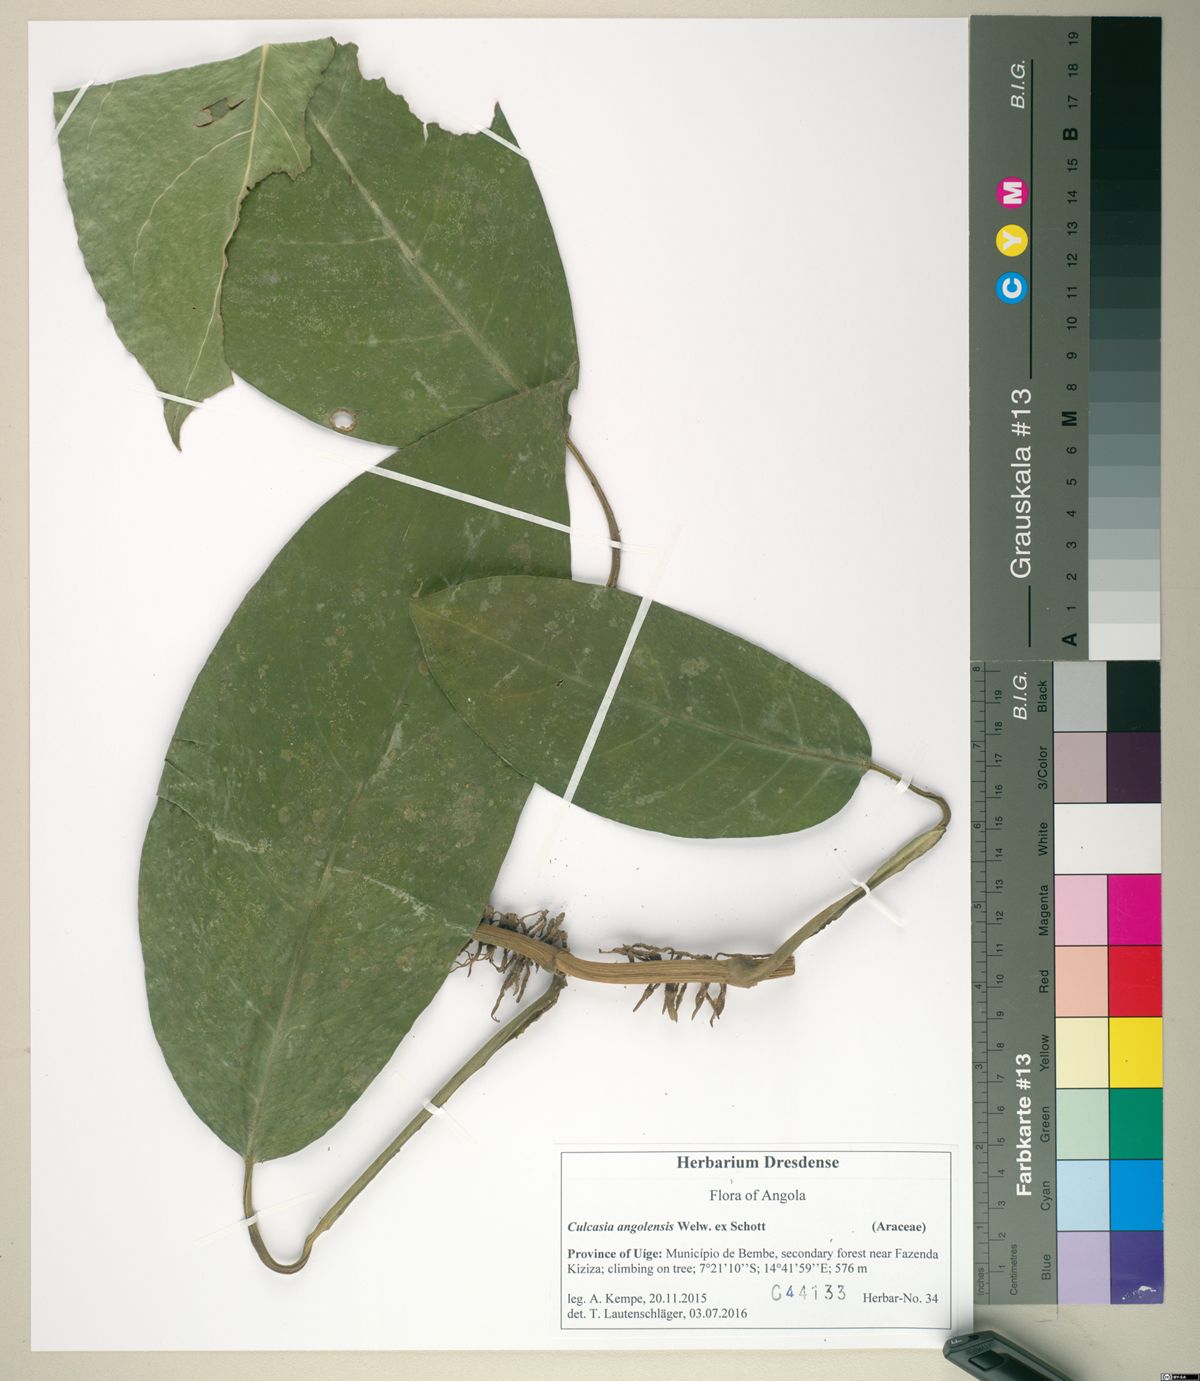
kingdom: Plantae
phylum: Tracheophyta
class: Liliopsida
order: Alismatales
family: Araceae
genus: Culcasia
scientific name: Culcasia angolensis
